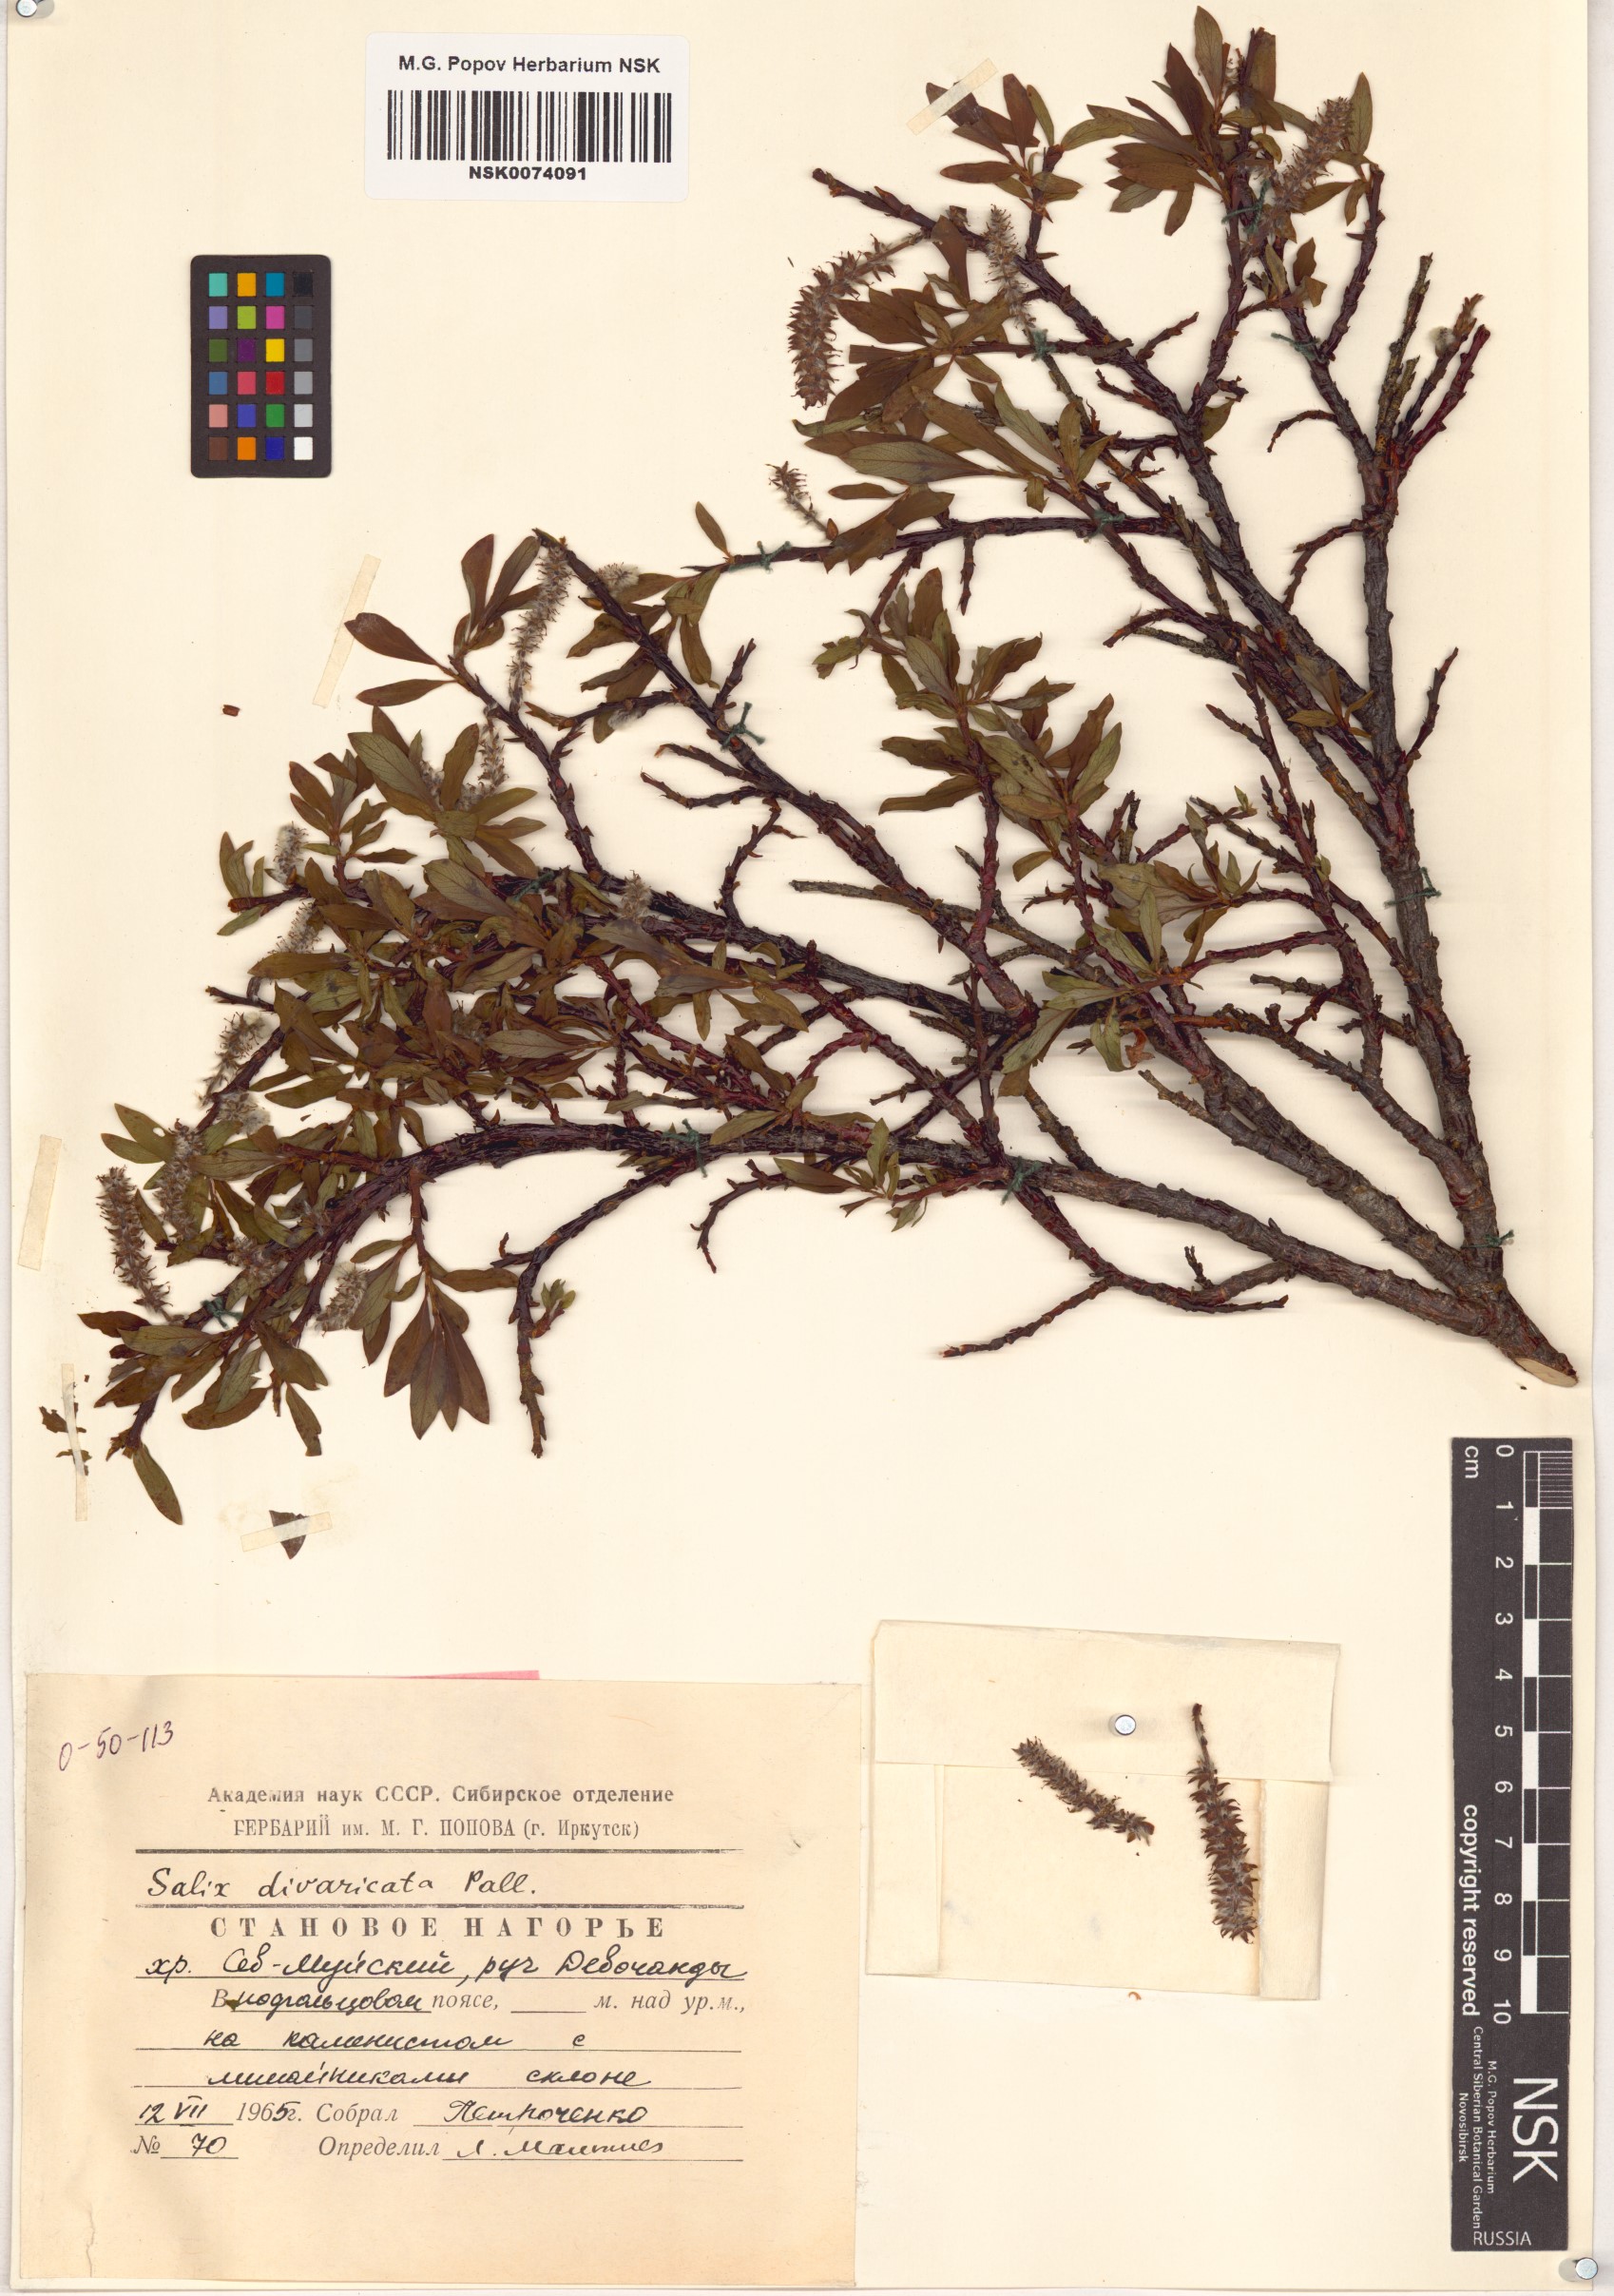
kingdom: Plantae
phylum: Tracheophyta
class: Magnoliopsida
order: Malpighiales
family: Salicaceae
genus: Salix
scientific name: Salix divaricata
